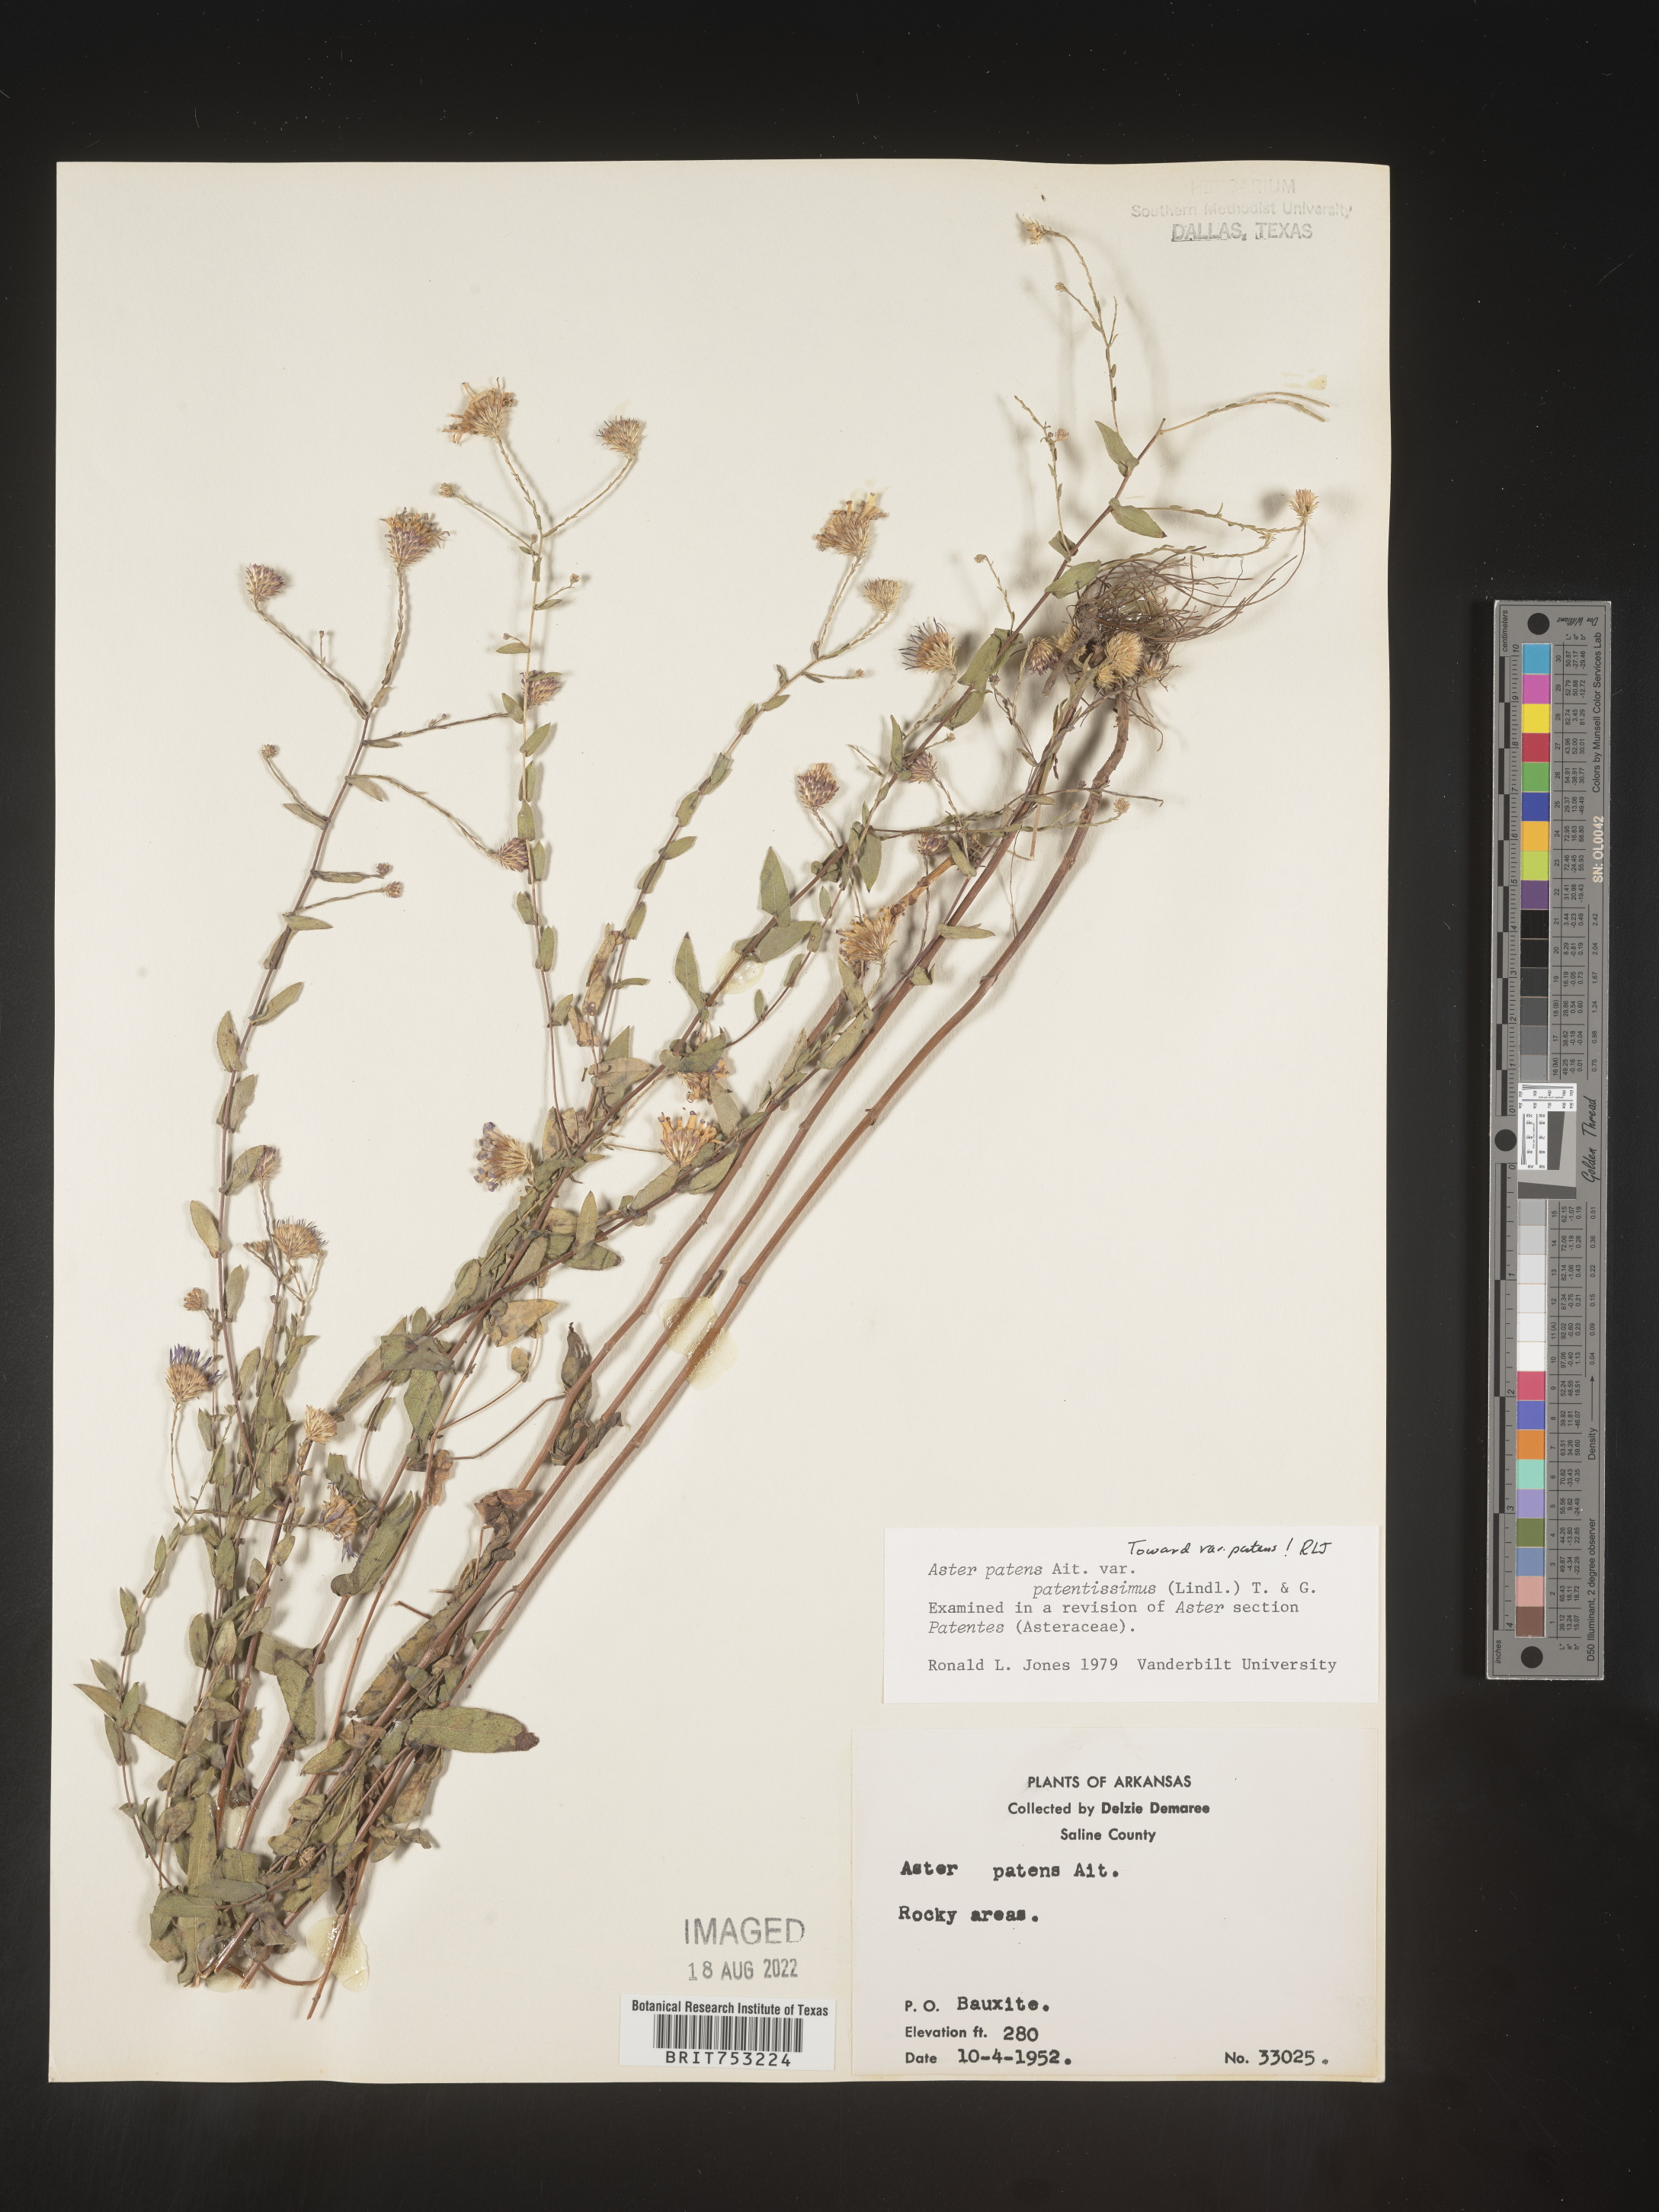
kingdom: Plantae
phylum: Tracheophyta
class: Magnoliopsida
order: Asterales
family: Asteraceae
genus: Symphyotrichum
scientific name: Symphyotrichum patens
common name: Late purple aster
